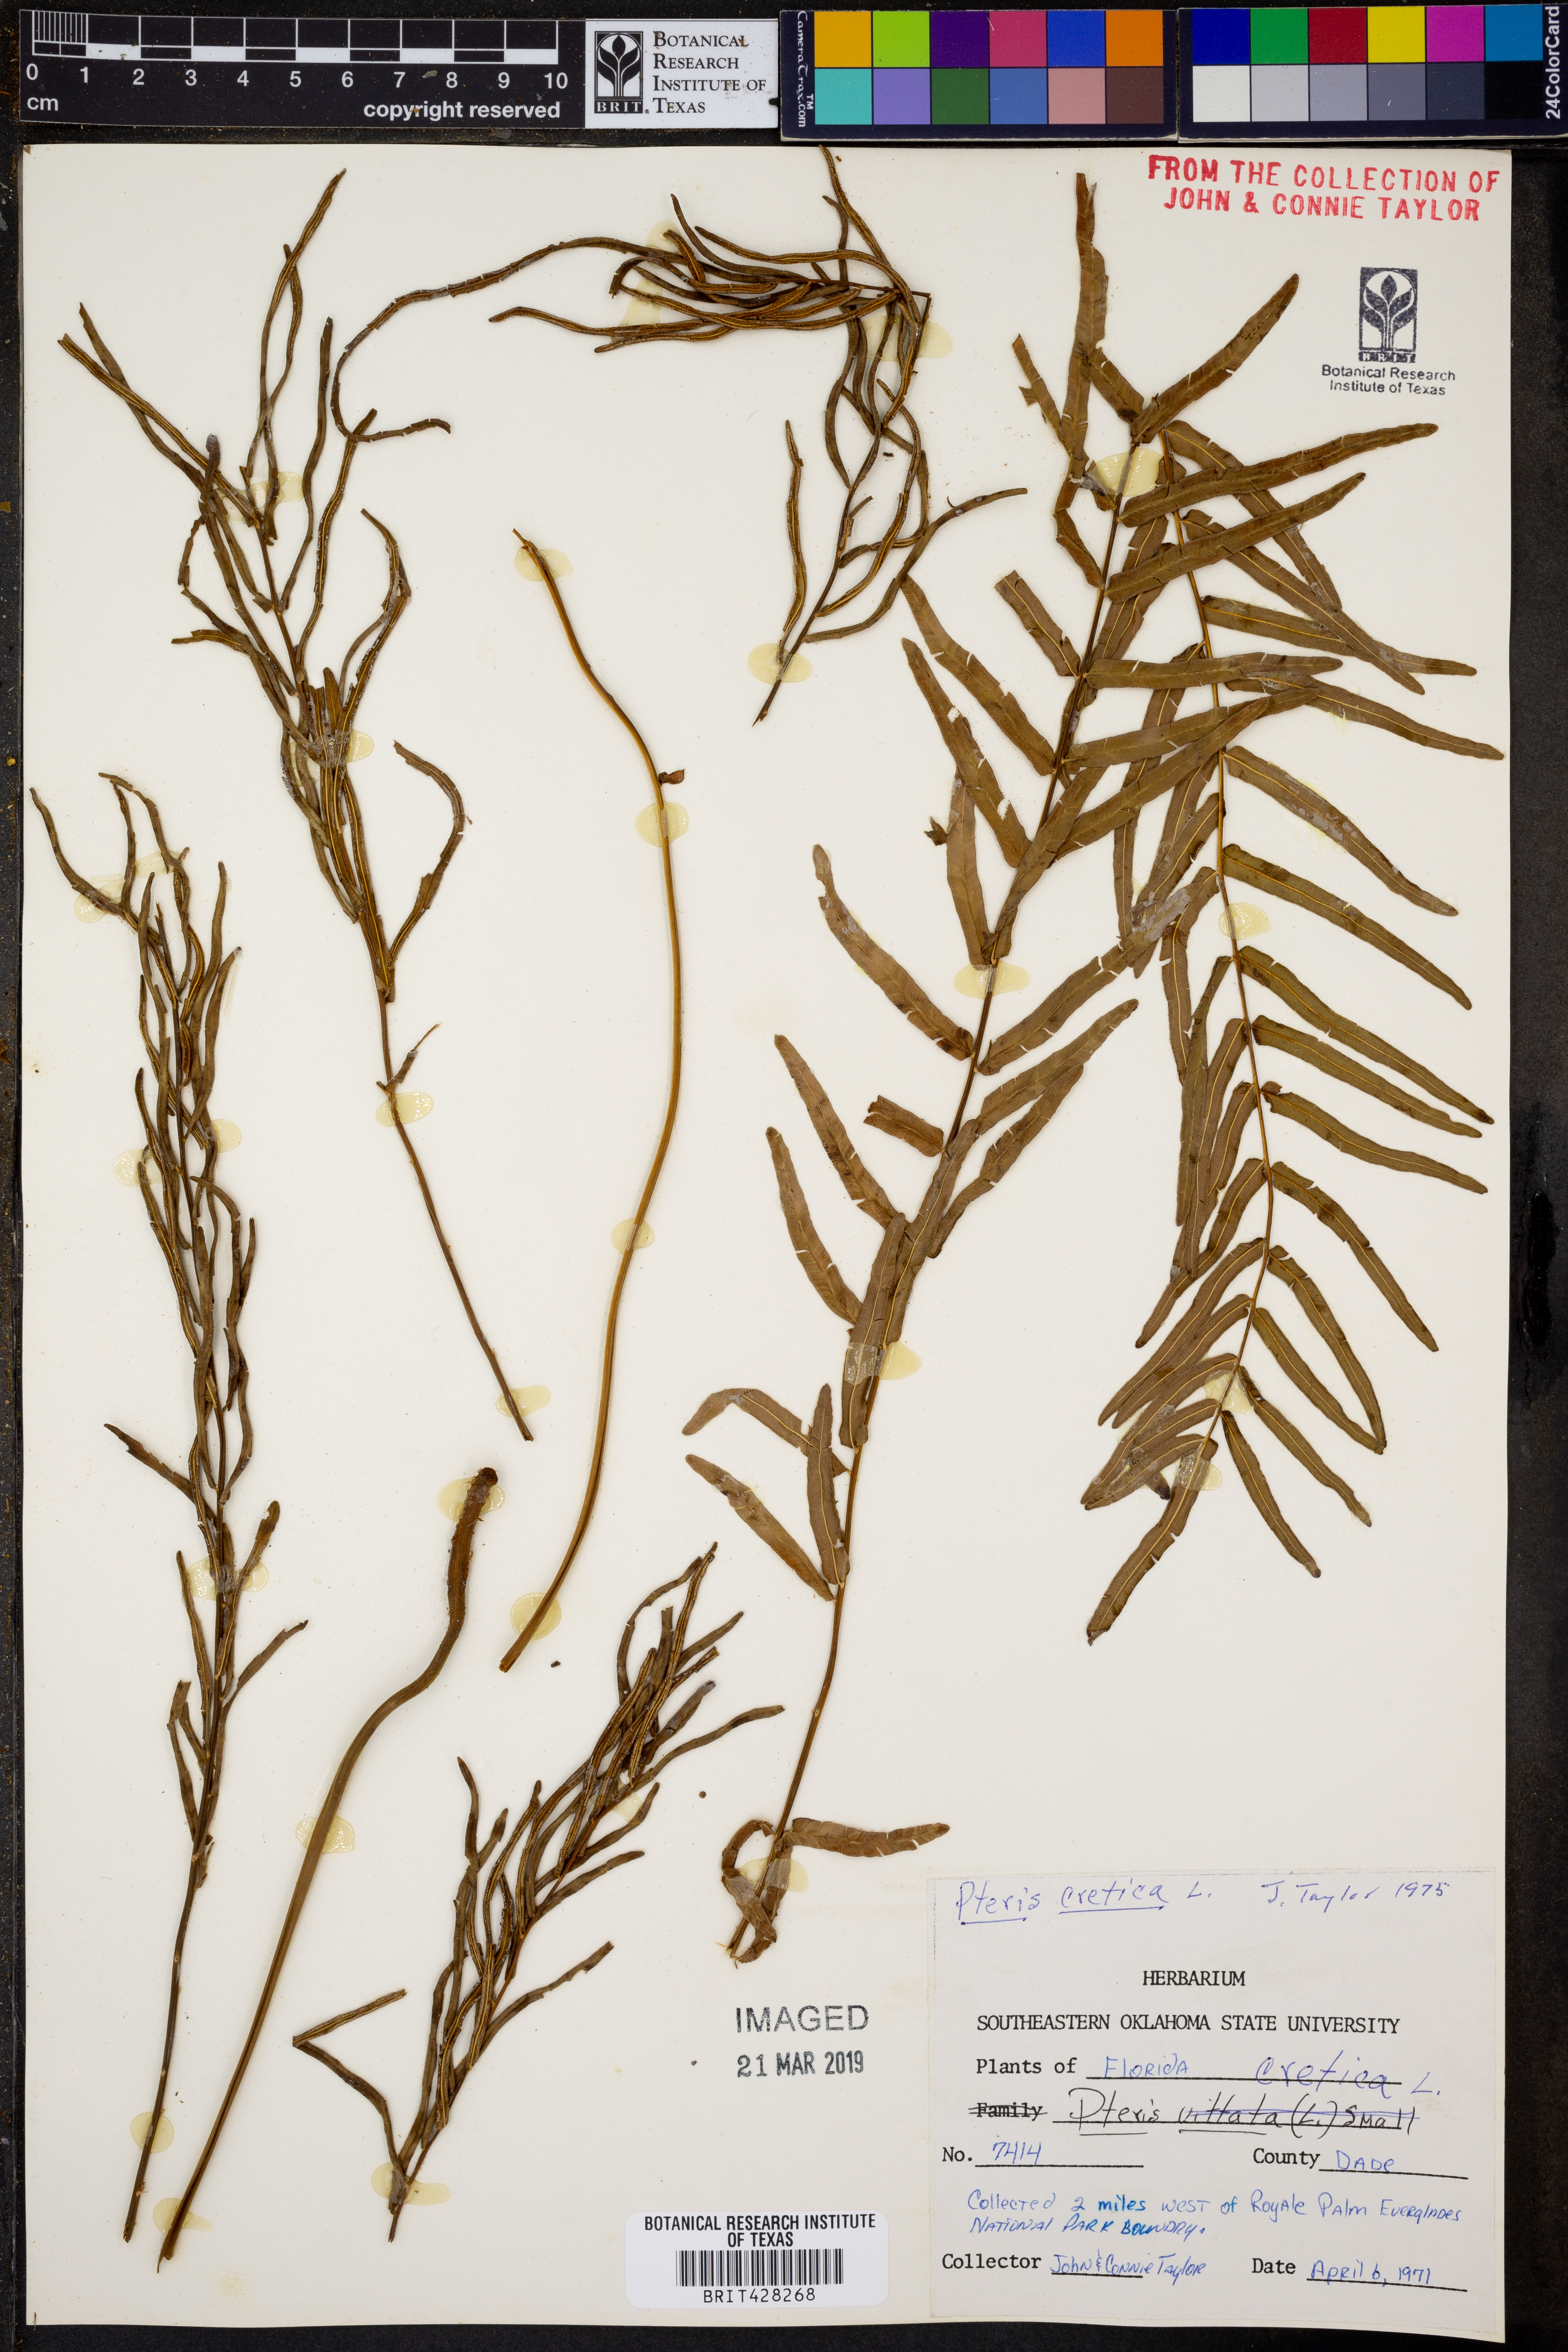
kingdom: Plantae
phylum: Tracheophyta
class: Polypodiopsida
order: Polypodiales
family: Pteridaceae
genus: Pteris
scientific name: Pteris cretica
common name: Ribbon fern
